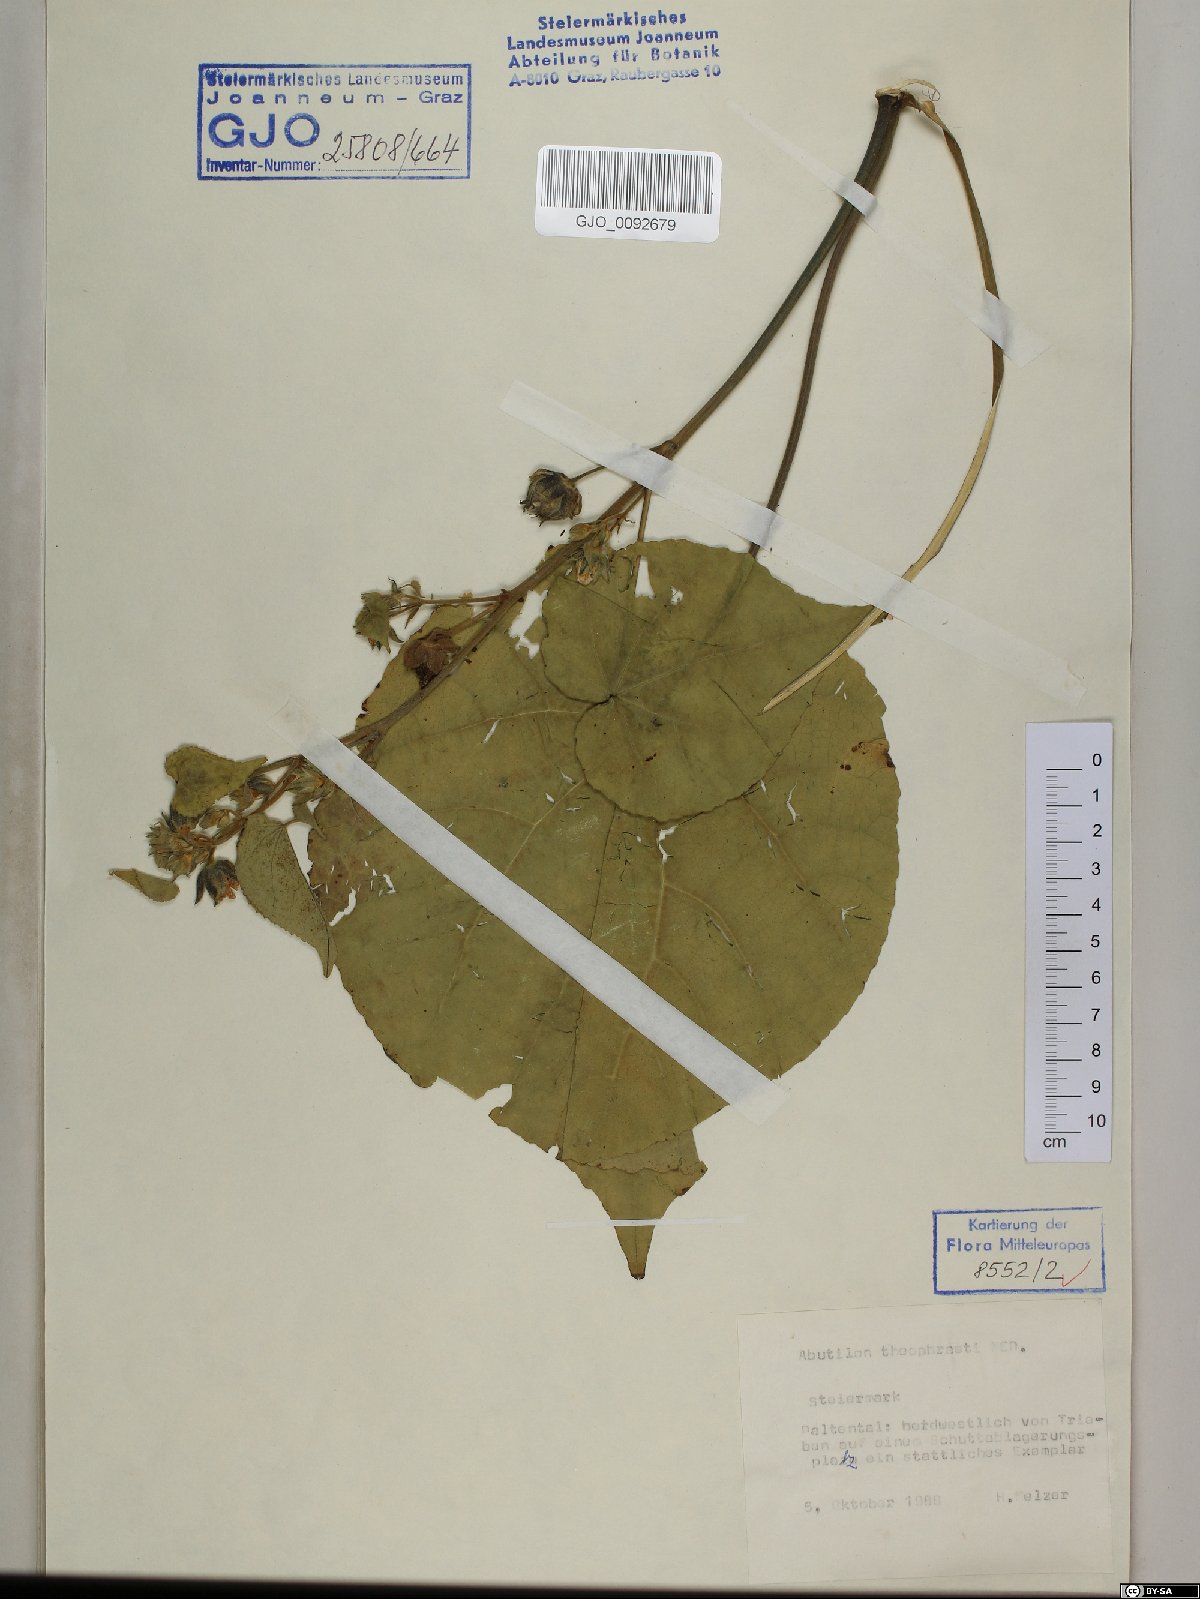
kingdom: Plantae
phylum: Tracheophyta
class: Magnoliopsida
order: Malvales
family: Malvaceae
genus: Abutilon
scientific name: Abutilon theophrasti
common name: Velvetleaf
